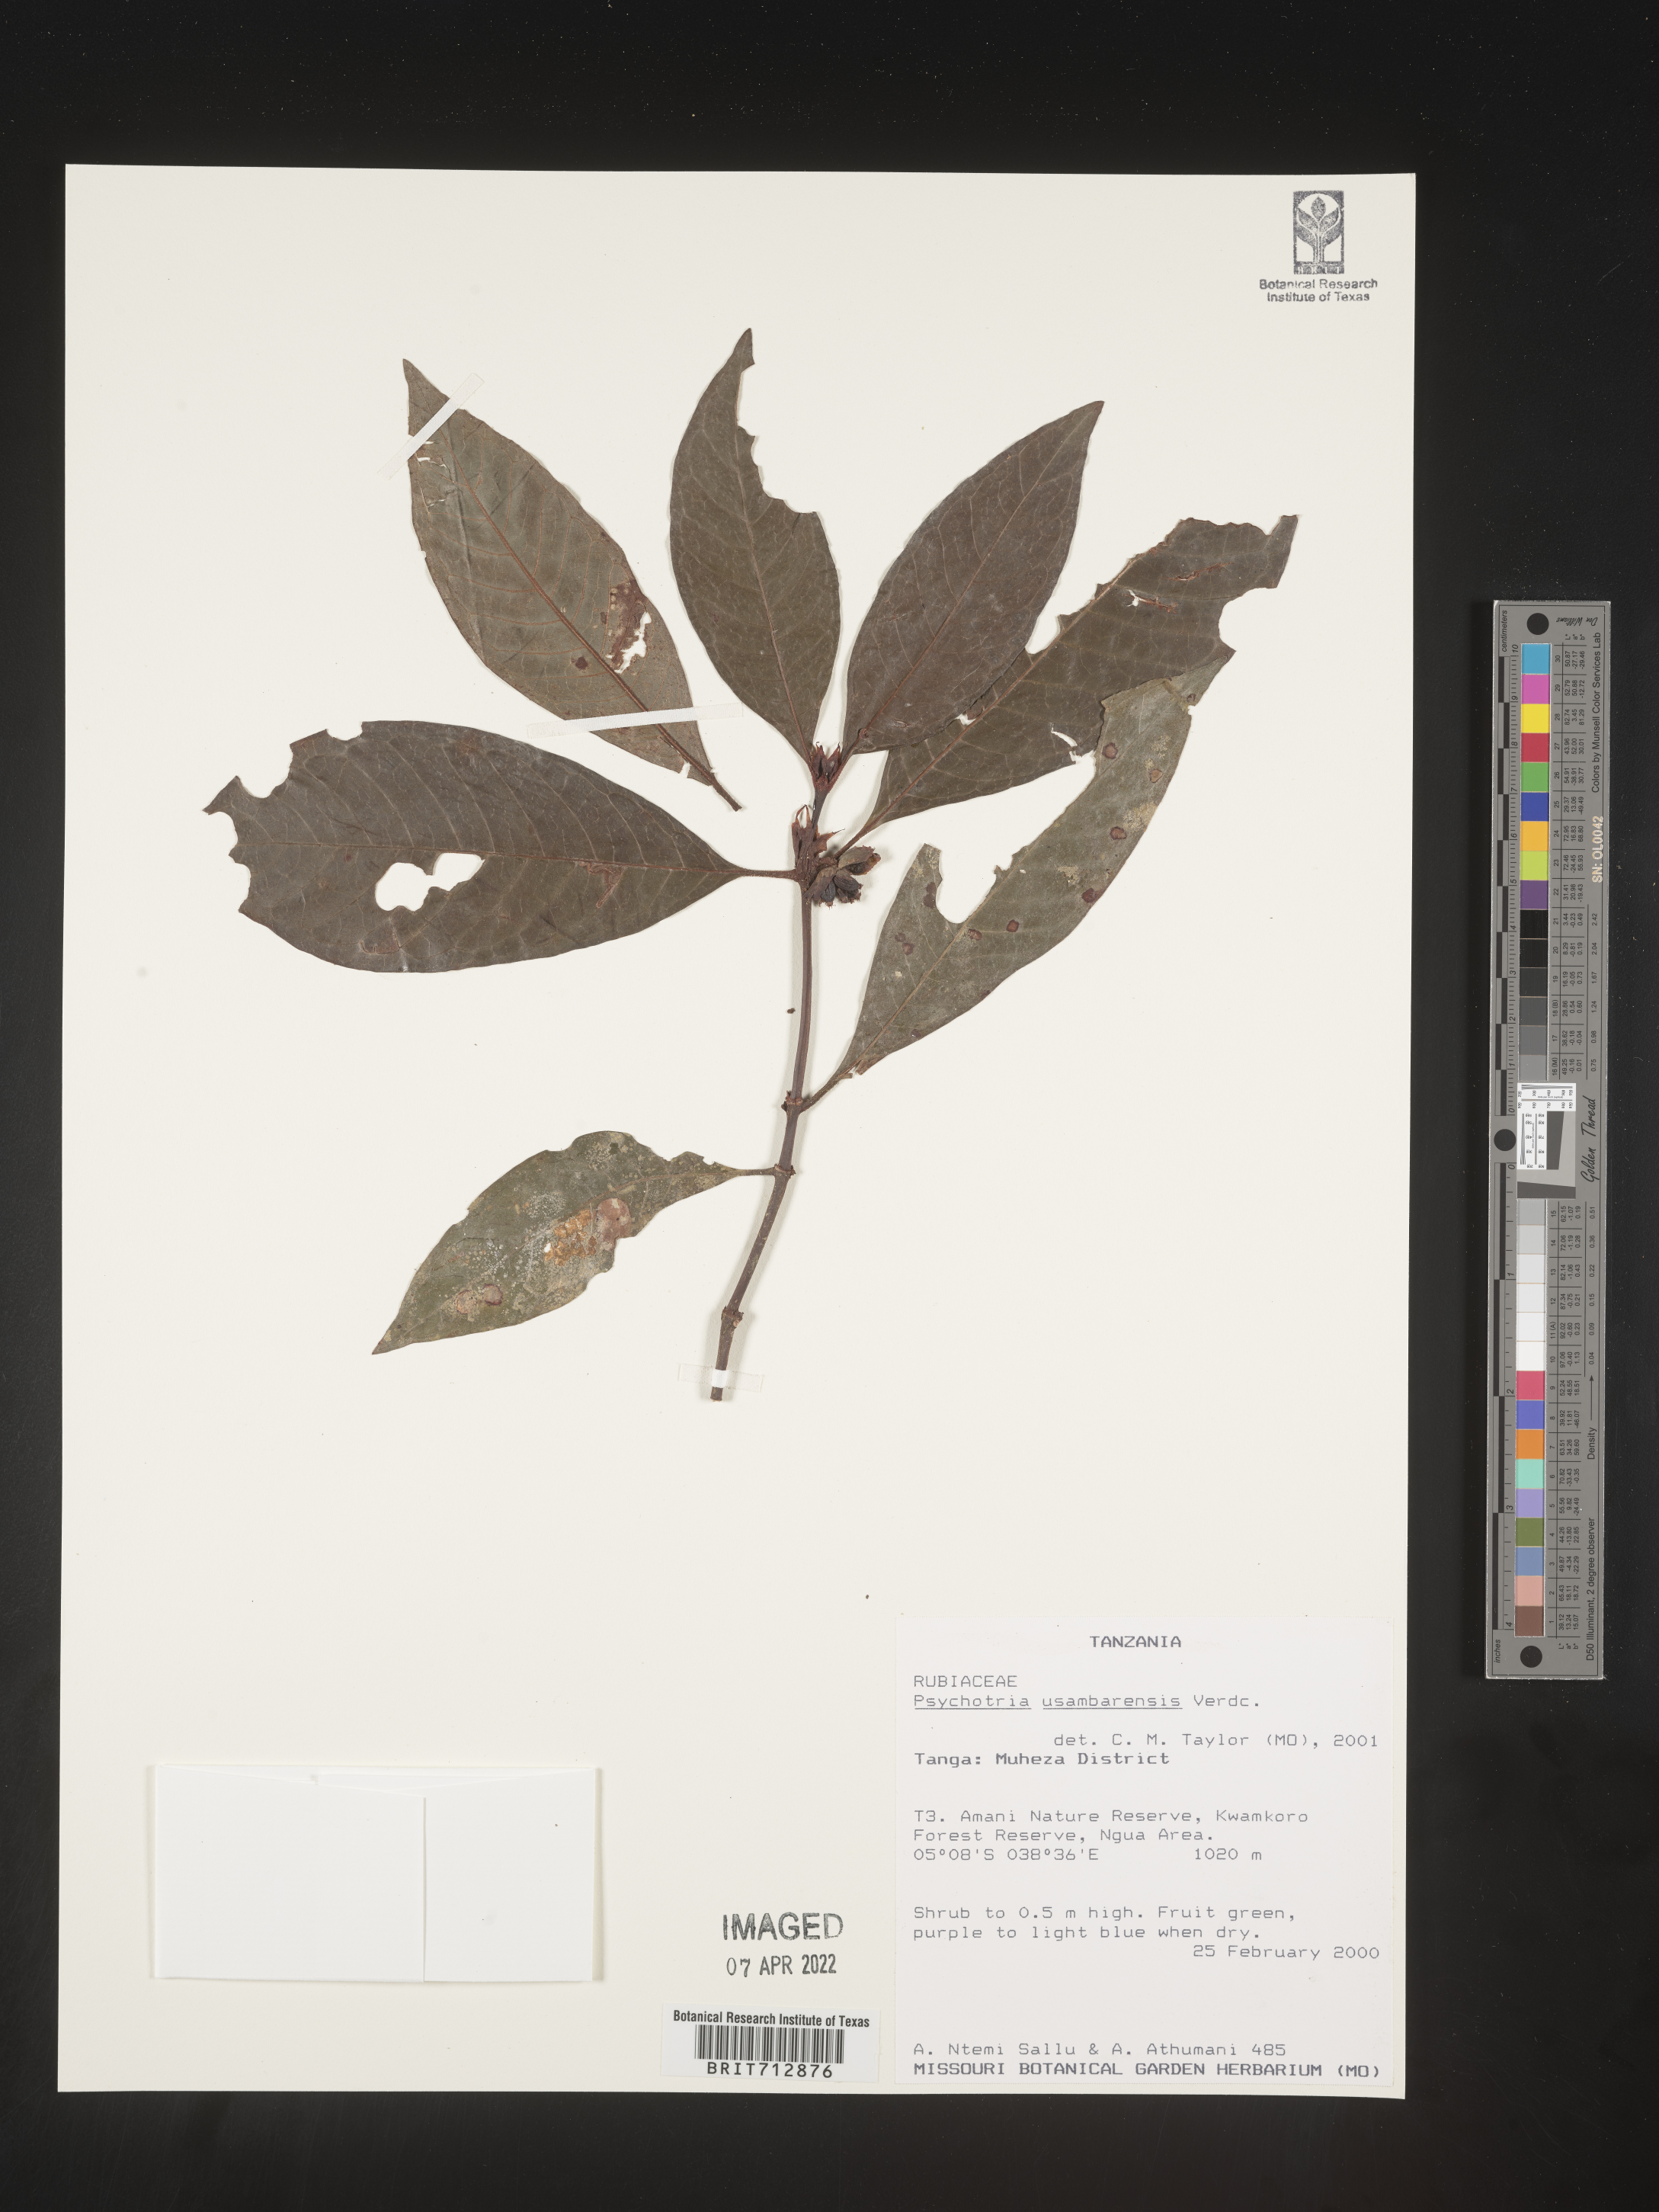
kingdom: Plantae
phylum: Tracheophyta
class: Magnoliopsida
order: Gentianales
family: Rubiaceae
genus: Psychotria
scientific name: Psychotria
